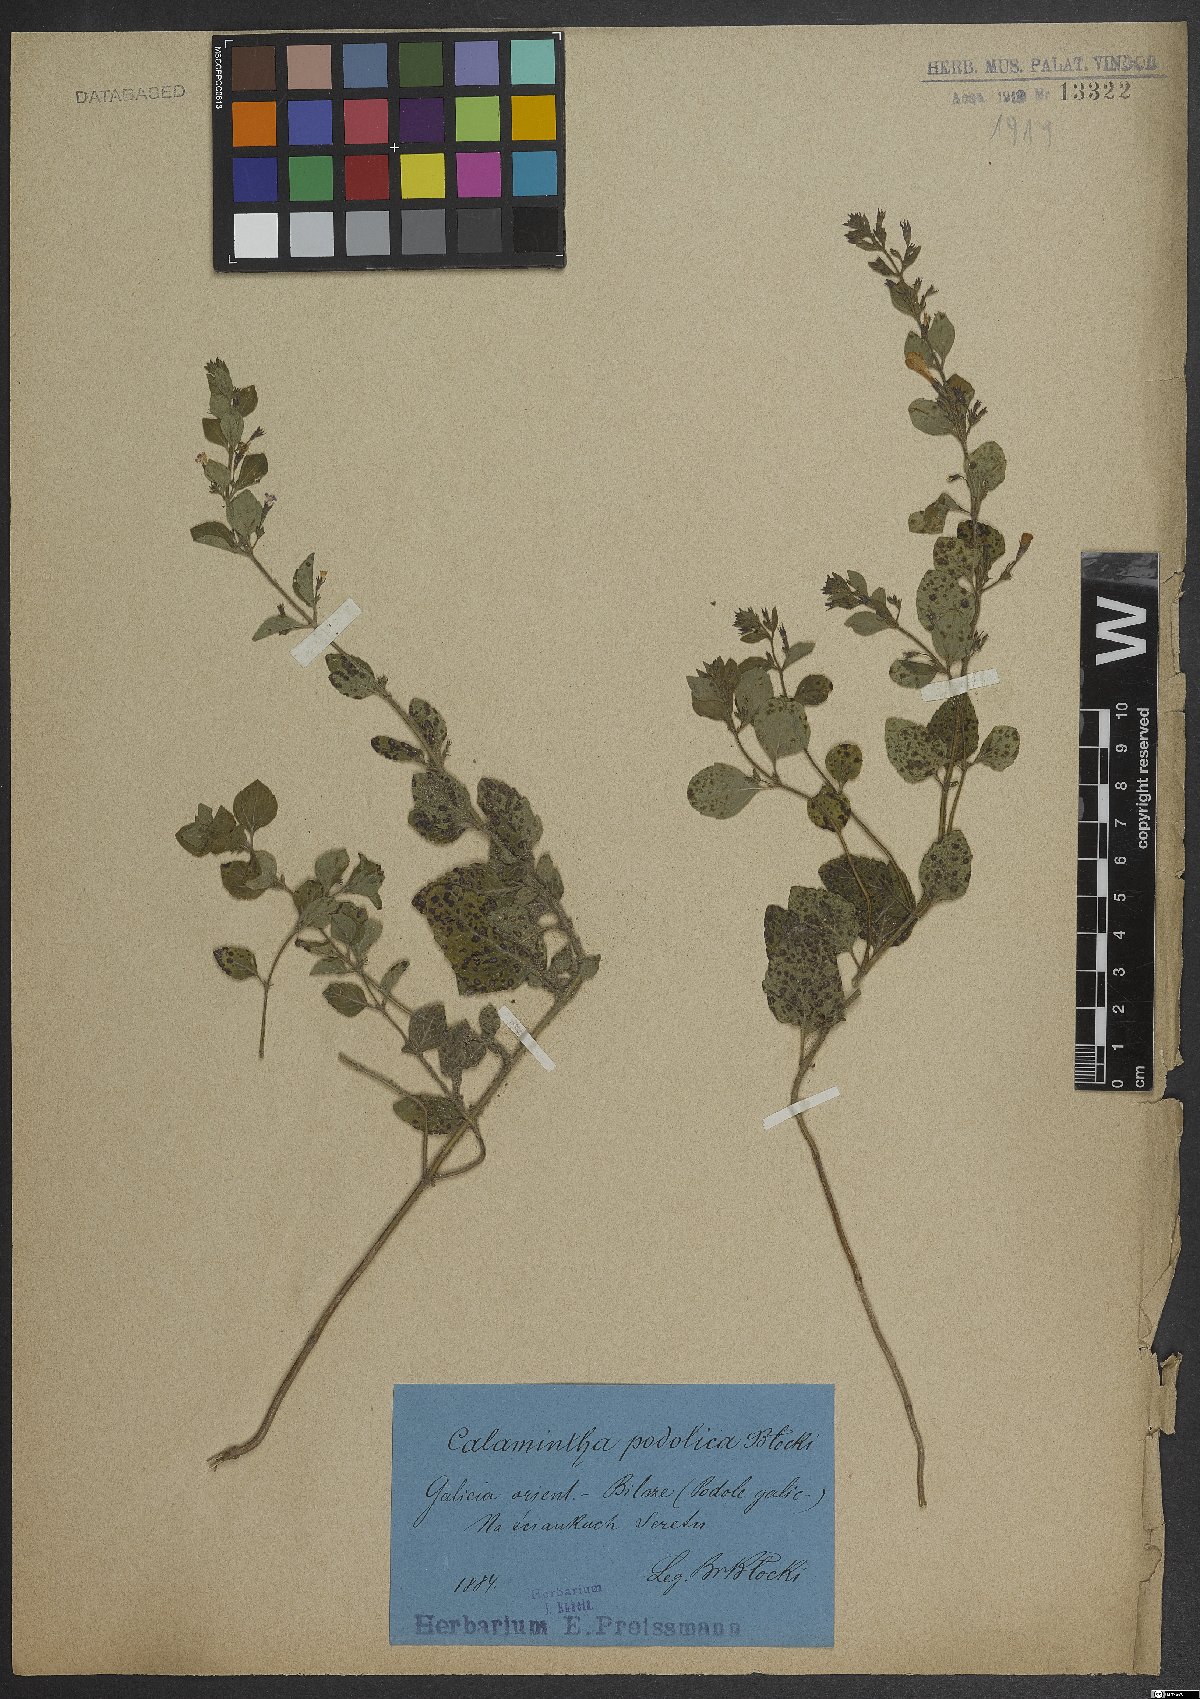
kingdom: Plantae
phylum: Tracheophyta
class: Magnoliopsida
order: Lamiales
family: Lamiaceae
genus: Calamintha
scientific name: Calamintha
